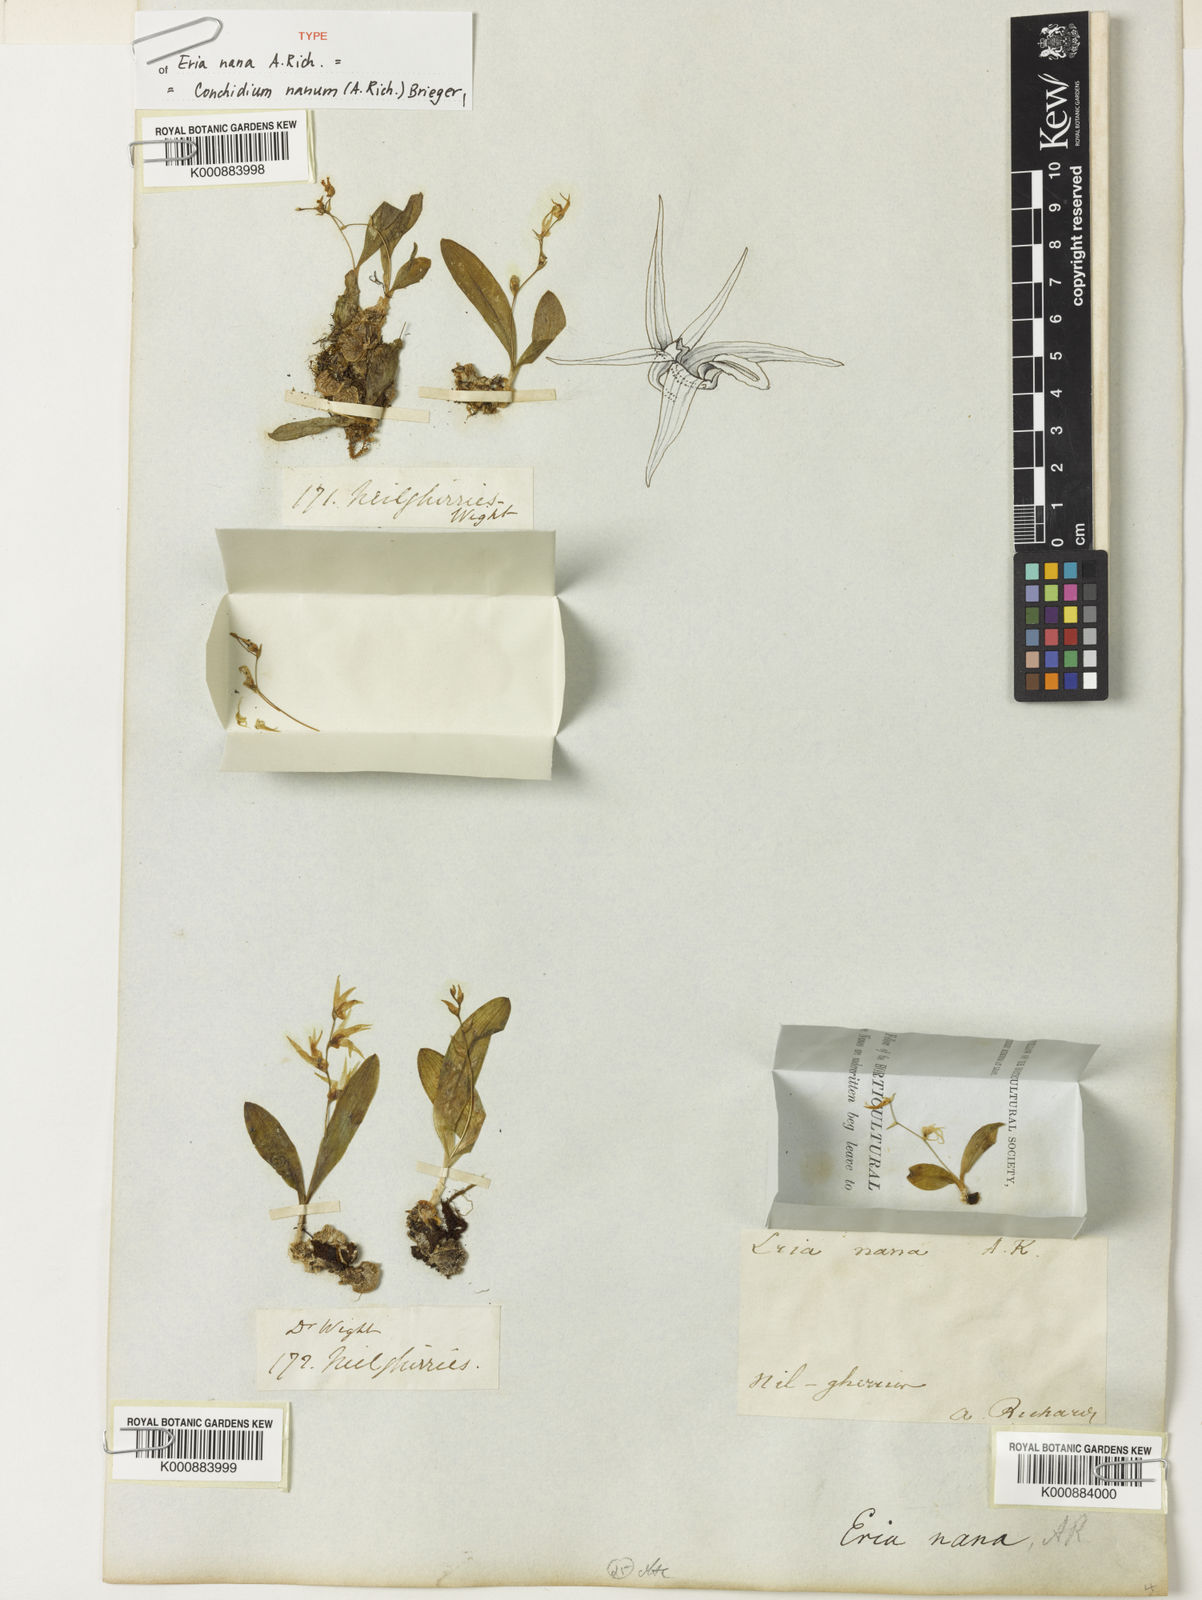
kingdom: Plantae
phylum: Tracheophyta
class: Liliopsida
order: Asparagales
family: Orchidaceae
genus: Porpax
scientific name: Porpax nana
